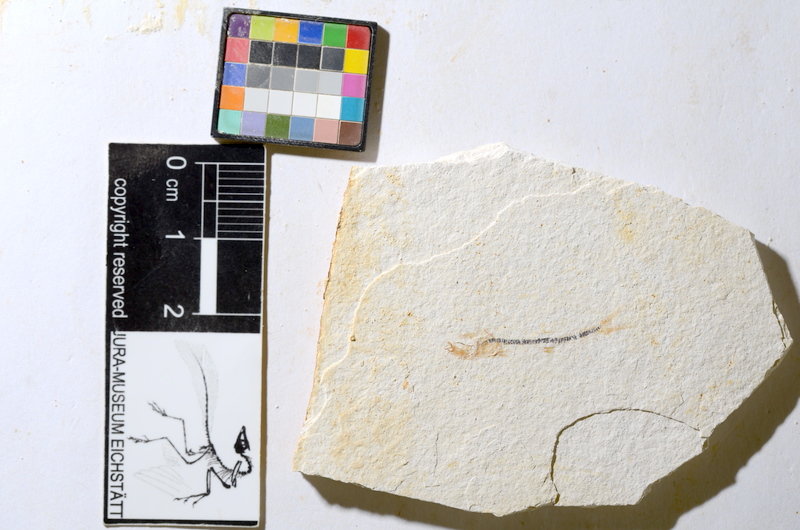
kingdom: Animalia
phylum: Chordata
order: Salmoniformes
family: Orthogonikleithridae
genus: Orthogonikleithrus
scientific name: Orthogonikleithrus hoelli
